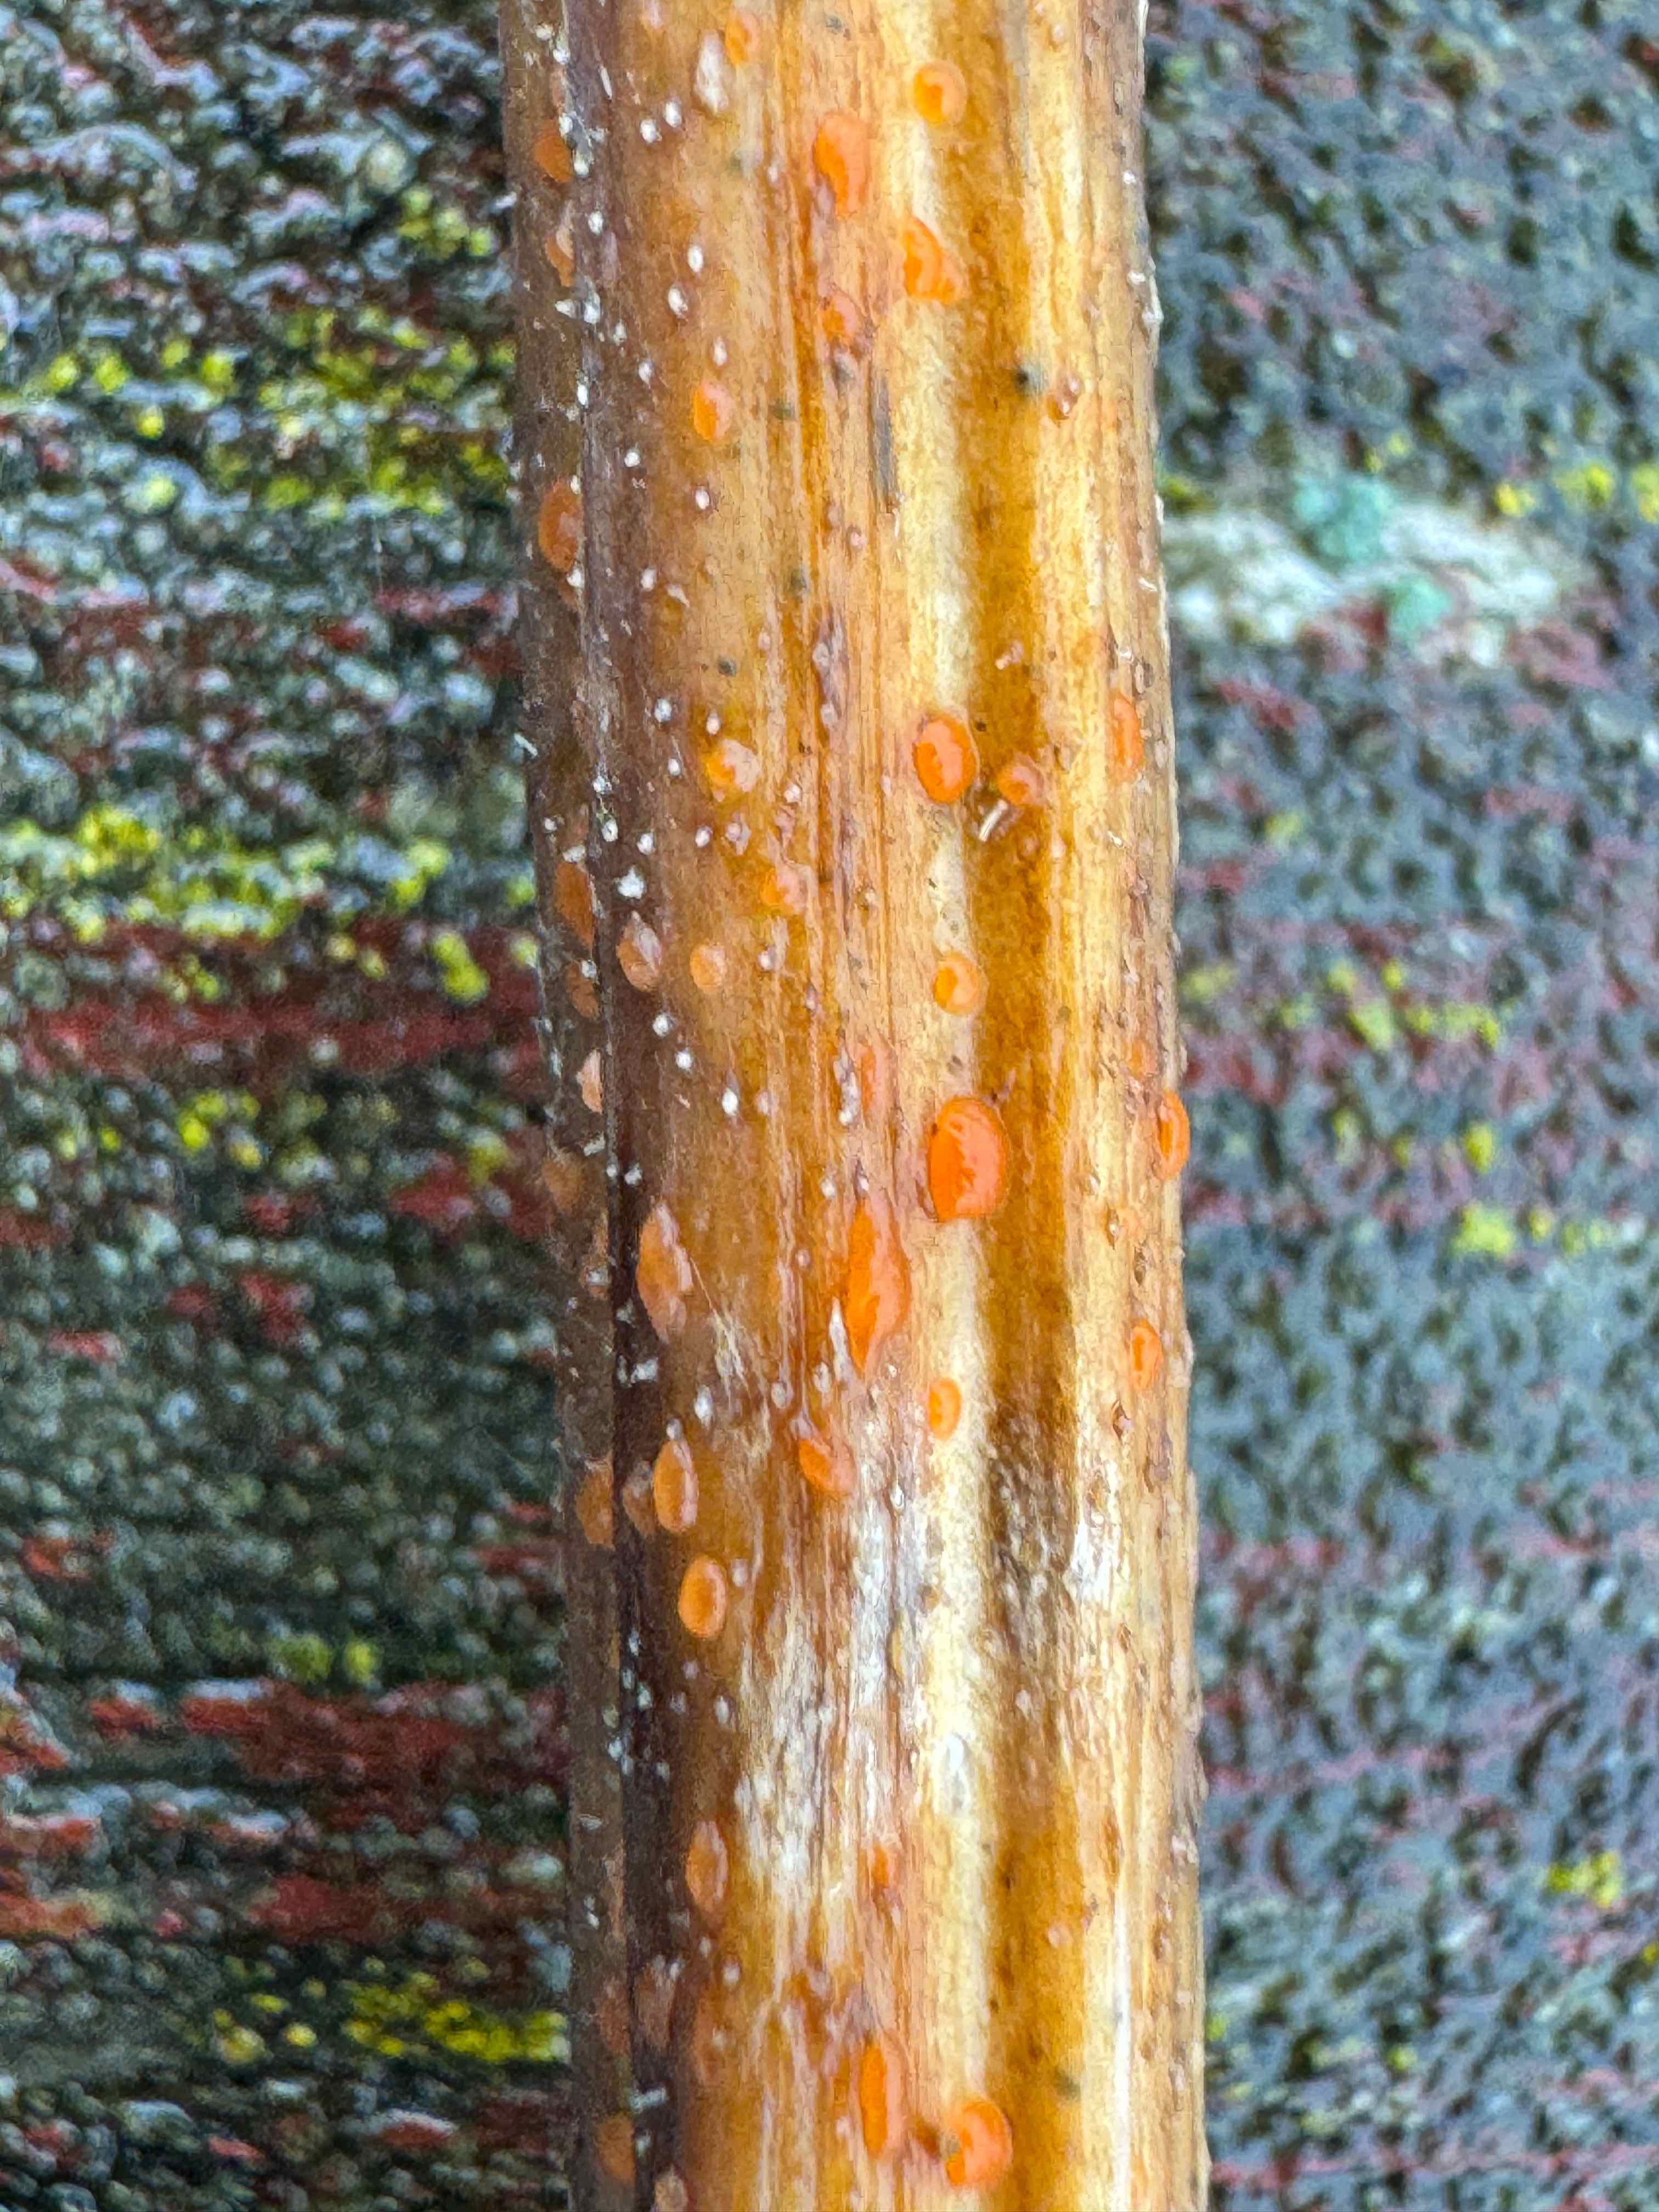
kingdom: Fungi
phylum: Ascomycota
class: Leotiomycetes
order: Helotiales
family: Calloriaceae
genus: Calloria
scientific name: Calloria urticae
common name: nælde-orangeskive
